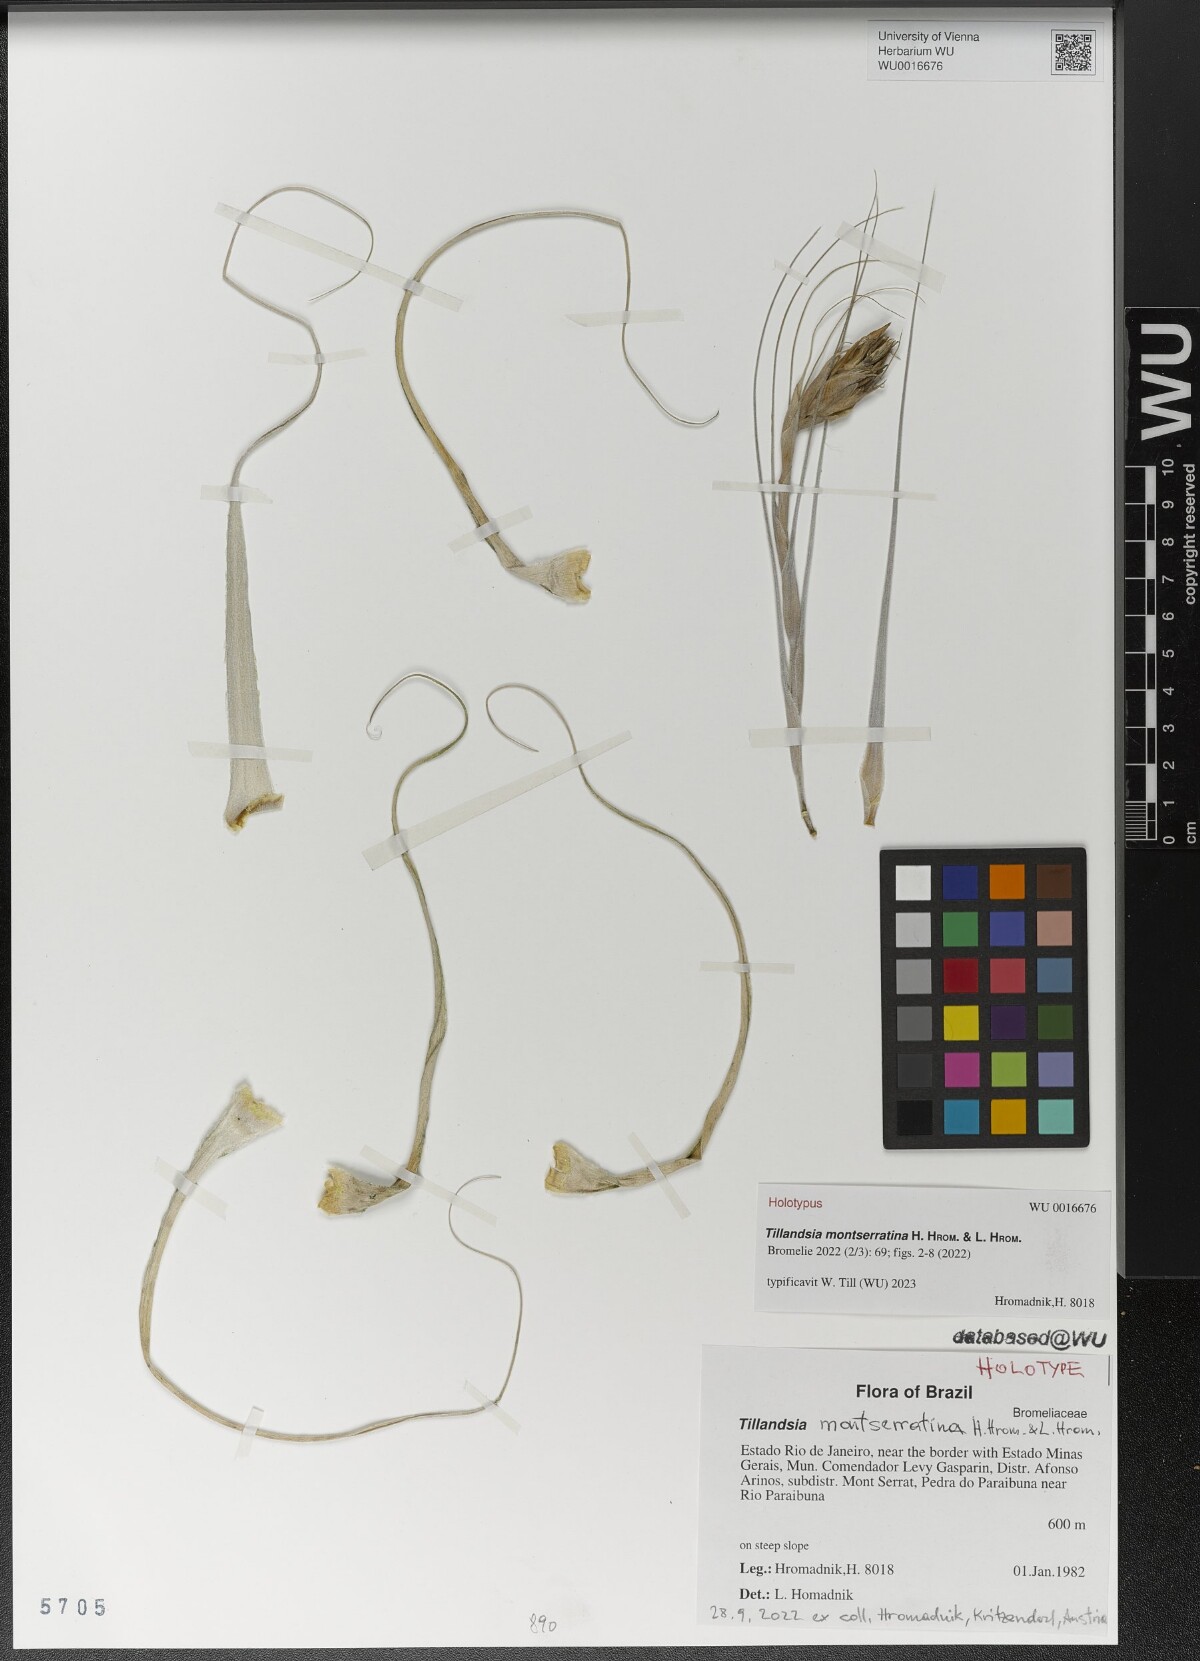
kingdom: Plantae
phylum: Tracheophyta
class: Liliopsida
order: Poales
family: Bromeliaceae
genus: Tillandsia
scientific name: Tillandsia
